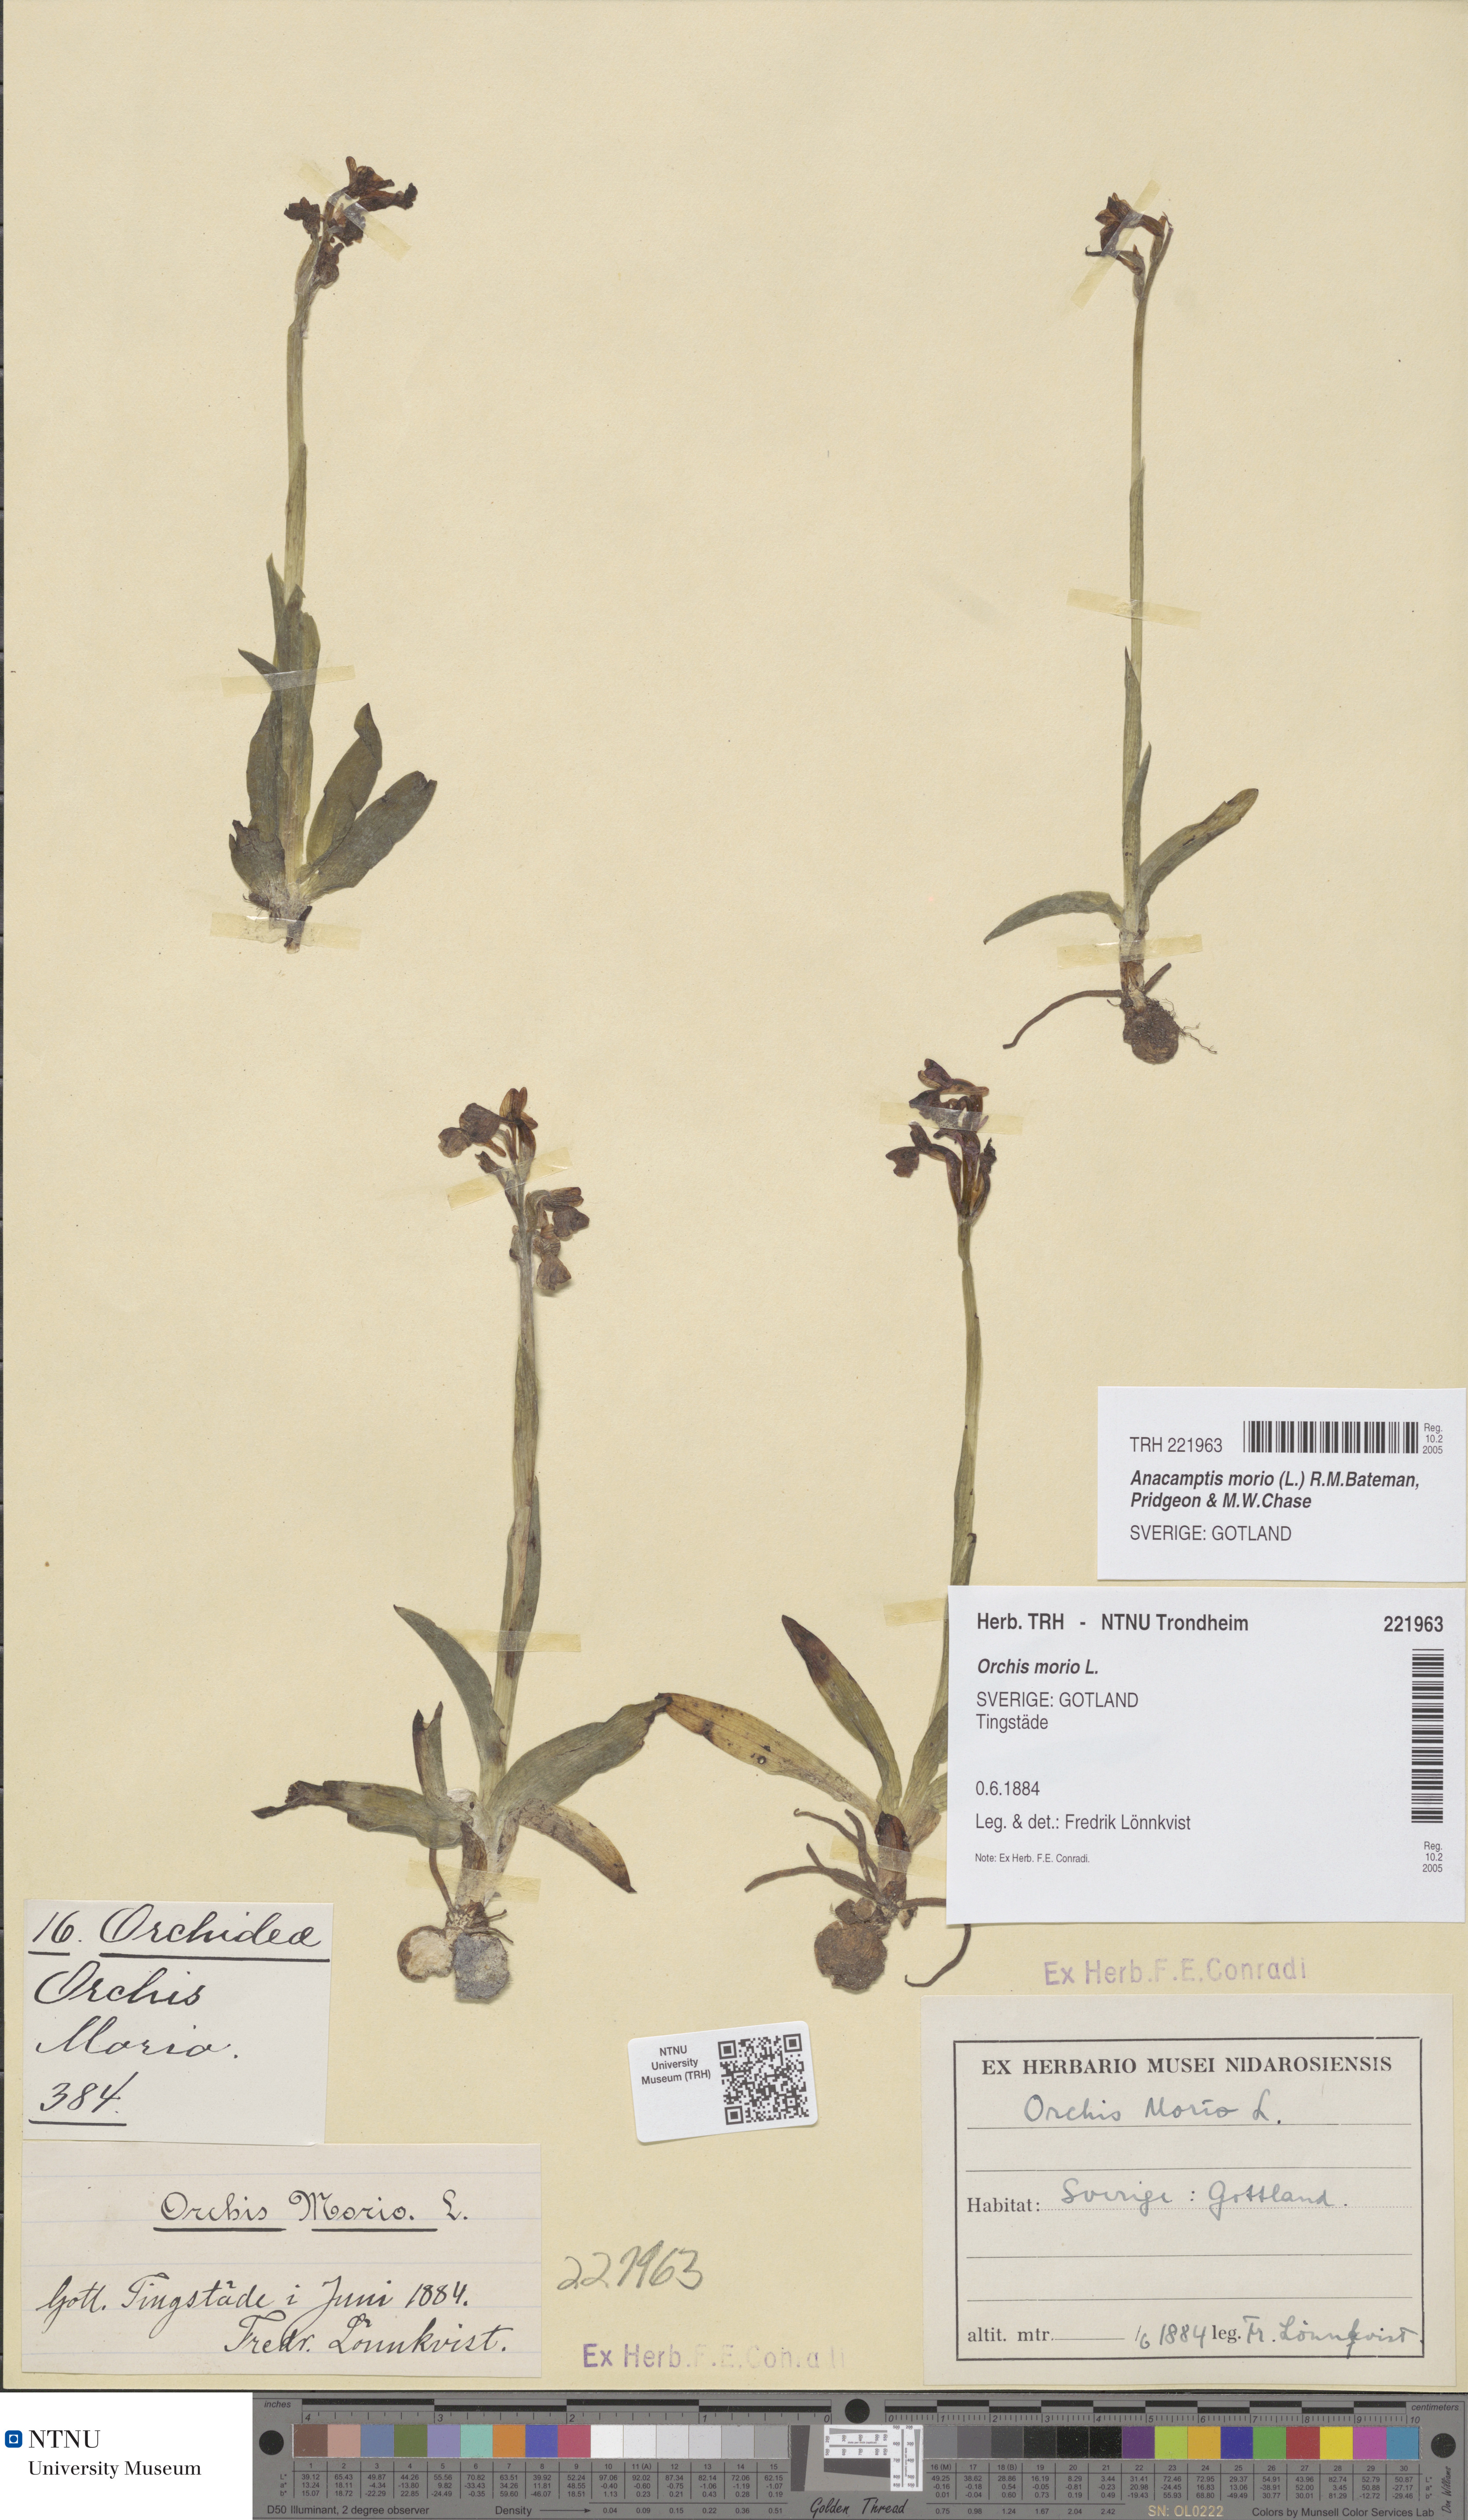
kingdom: Plantae
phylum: Tracheophyta
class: Liliopsida
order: Asparagales
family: Orchidaceae
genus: Anacamptis
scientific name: Anacamptis morio
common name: Green-winged orchid
